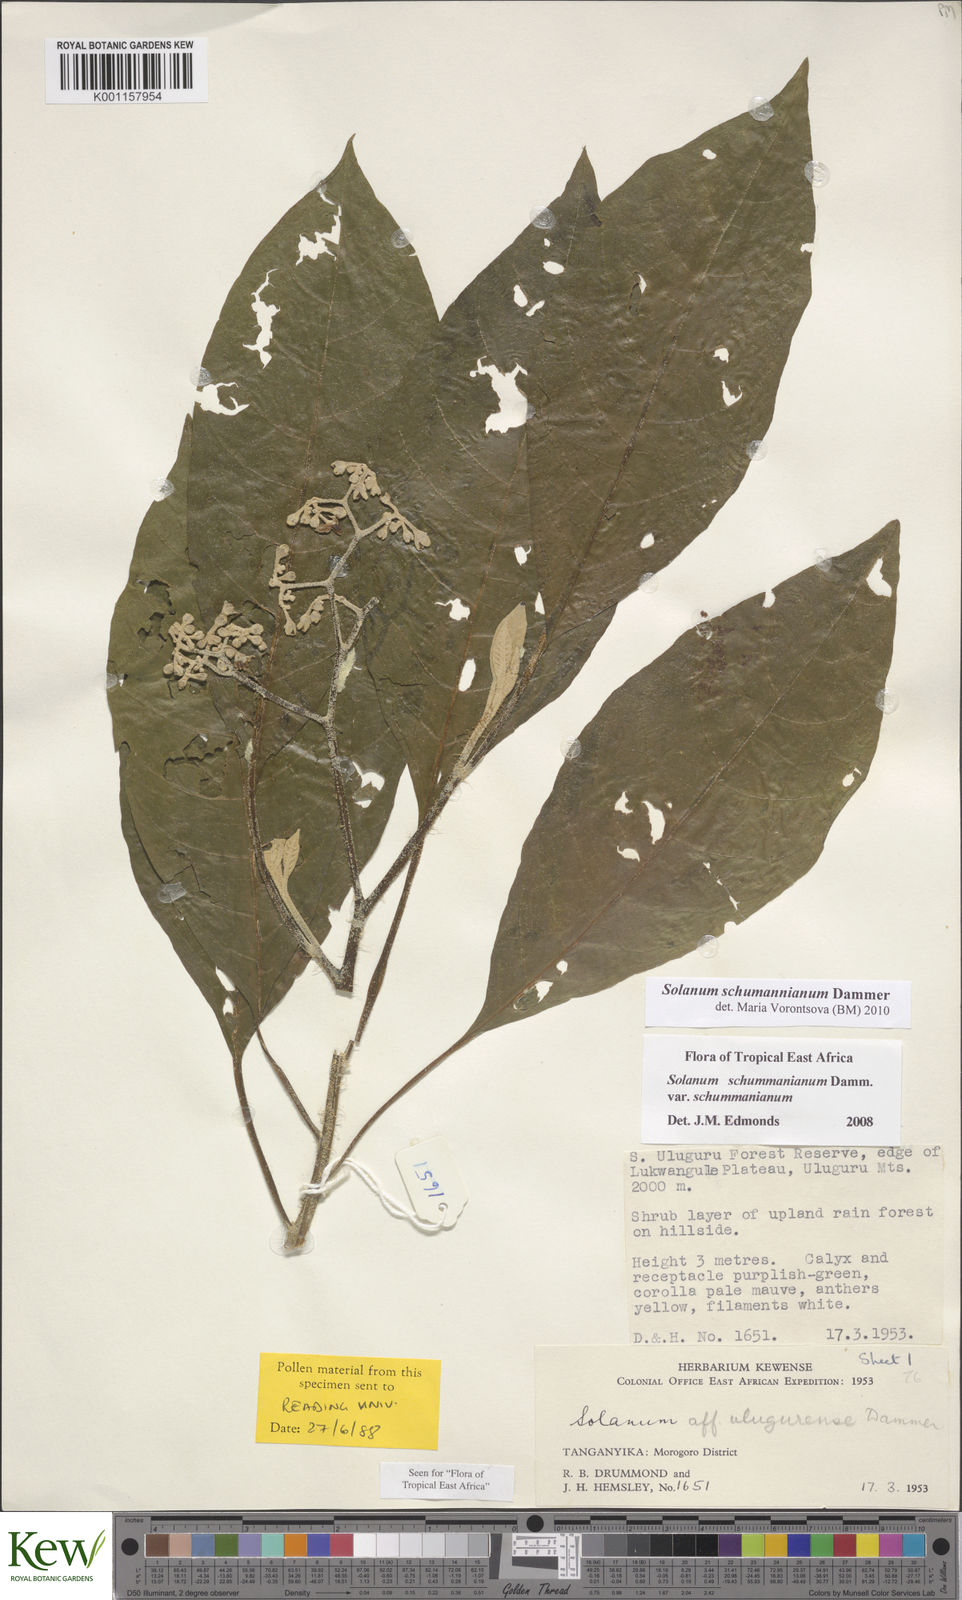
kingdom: Plantae
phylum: Tracheophyta
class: Magnoliopsida
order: Solanales
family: Solanaceae
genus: Solanum
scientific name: Solanum schumannianum
